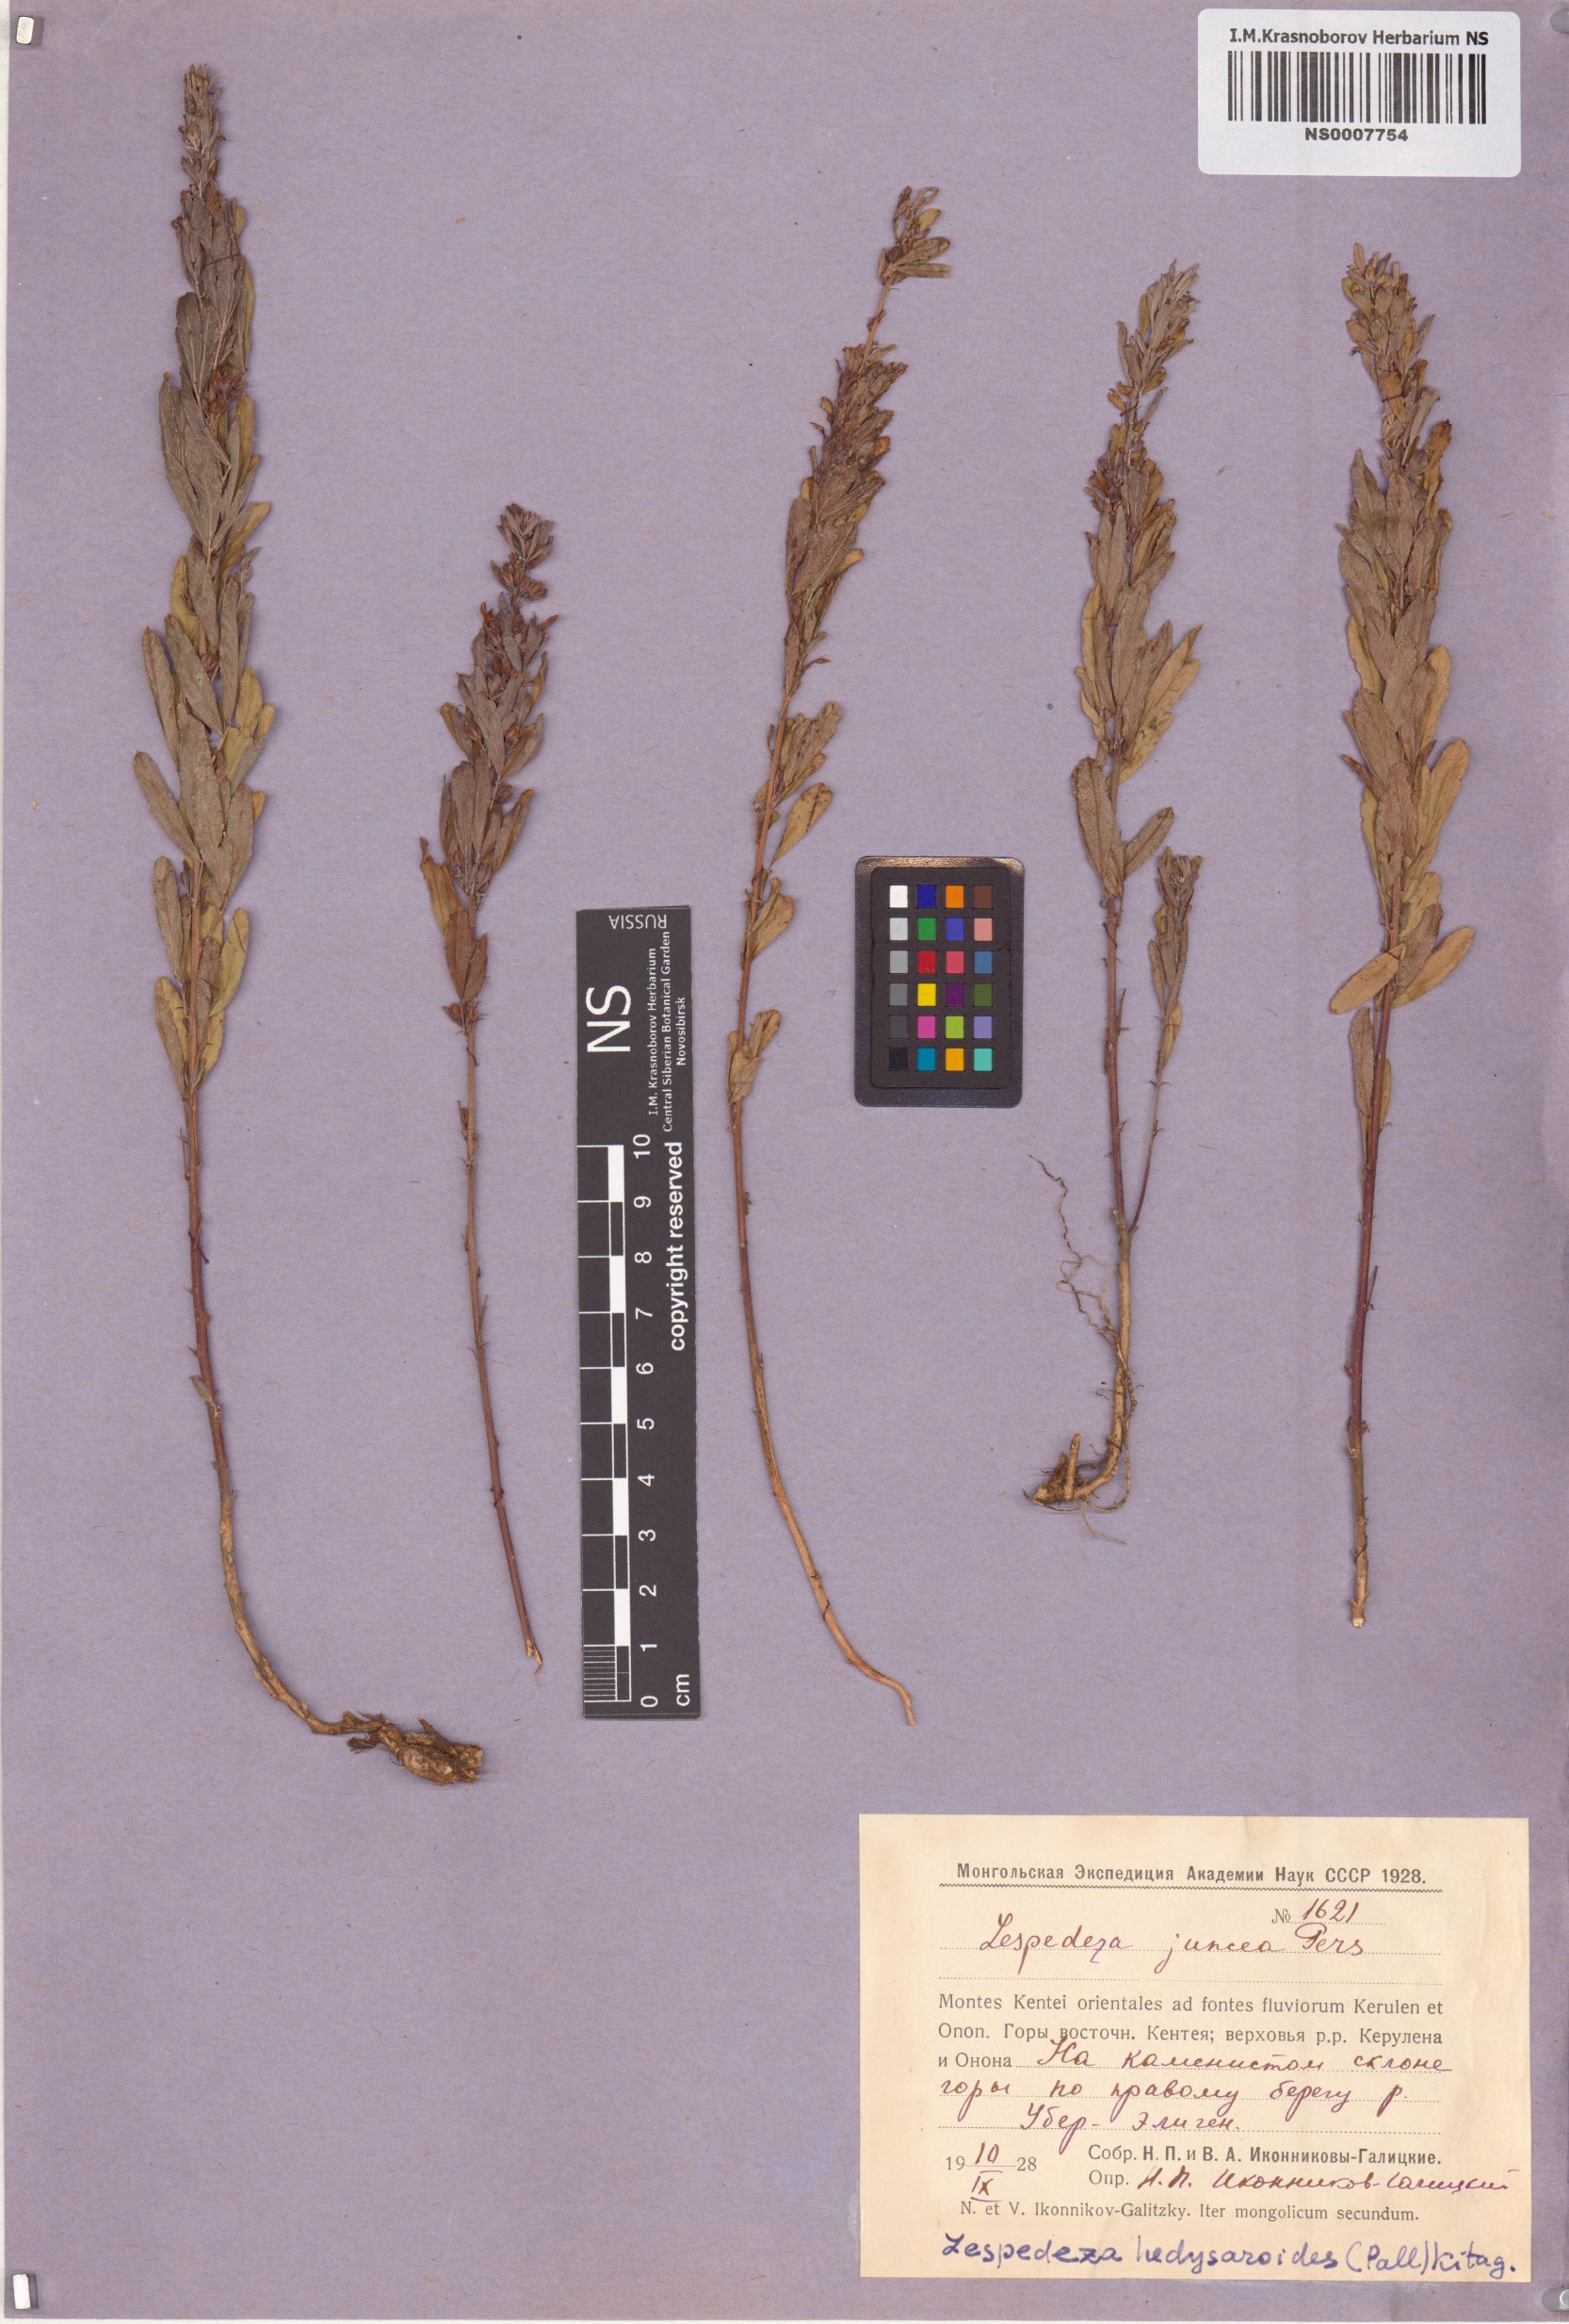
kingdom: Plantae
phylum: Tracheophyta
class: Magnoliopsida
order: Fabales
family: Fabaceae
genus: Lespedeza
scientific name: Lespedeza juncea
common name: Siberian lespedeza
